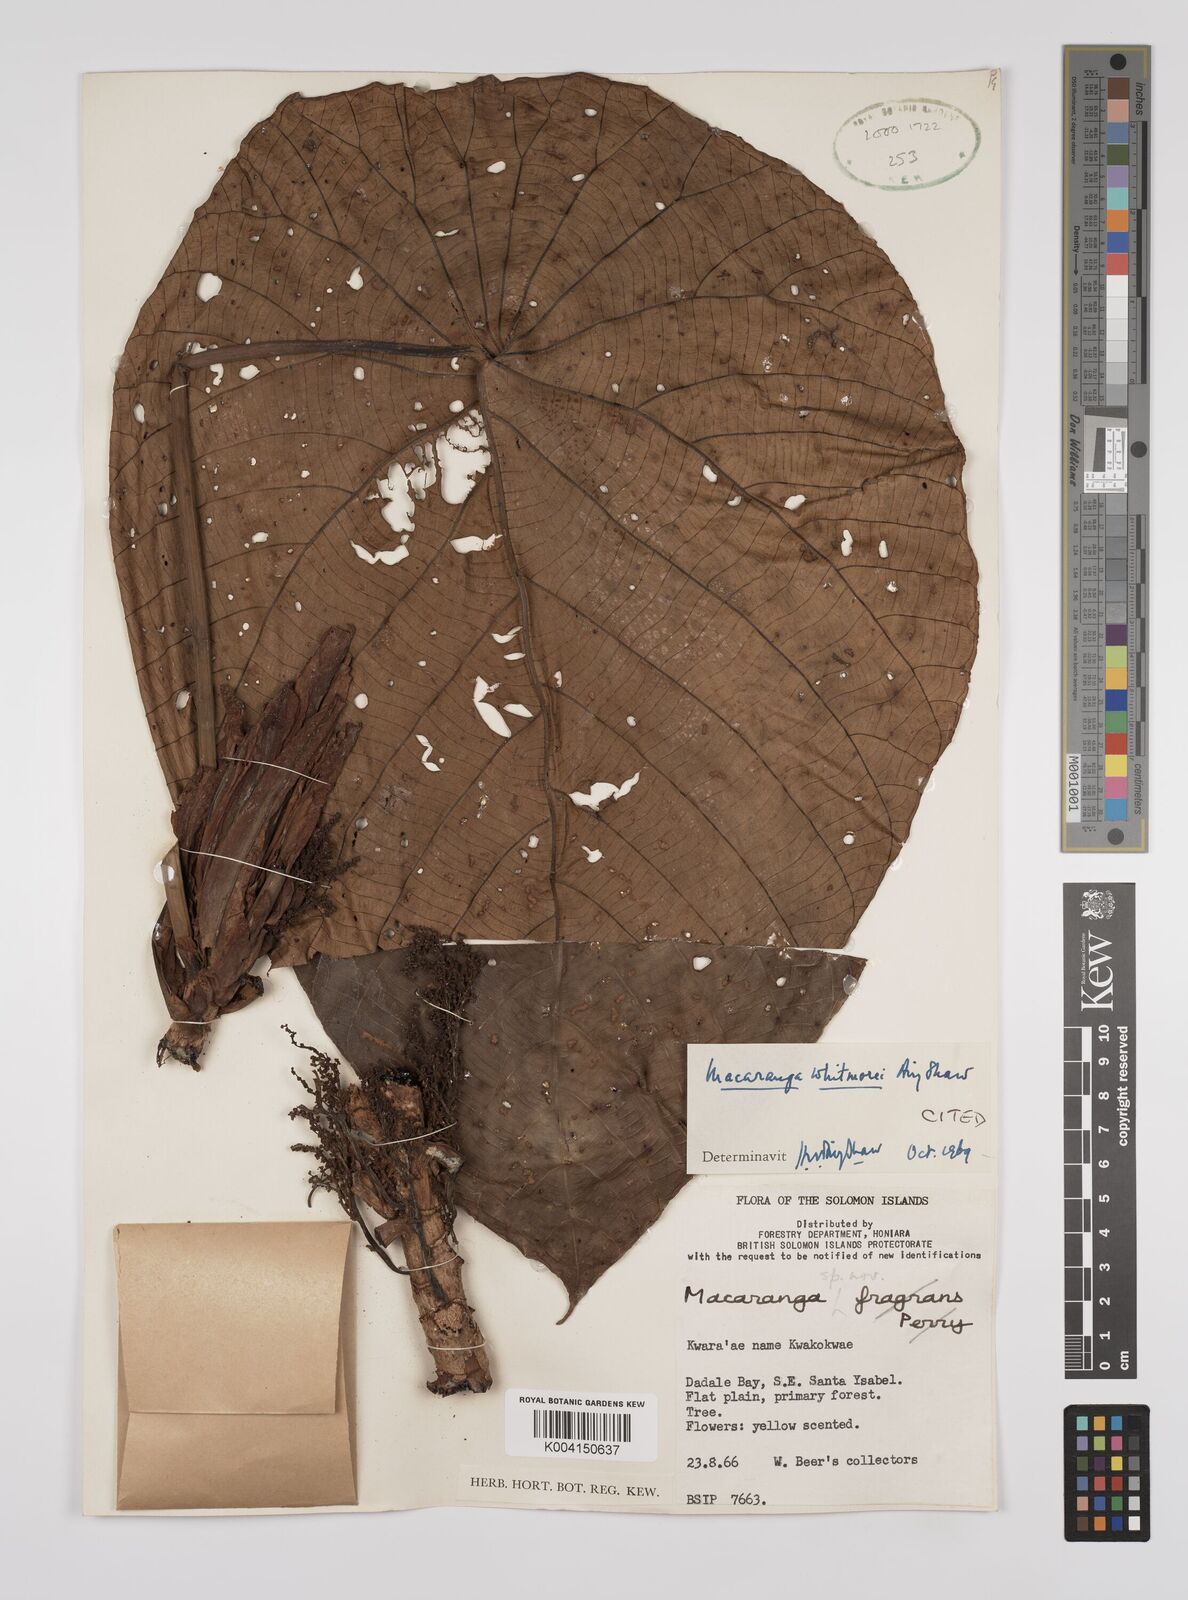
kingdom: Plantae
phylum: Tracheophyta
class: Magnoliopsida
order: Malpighiales
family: Euphorbiaceae
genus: Macaranga
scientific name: Macaranga whitmorei
